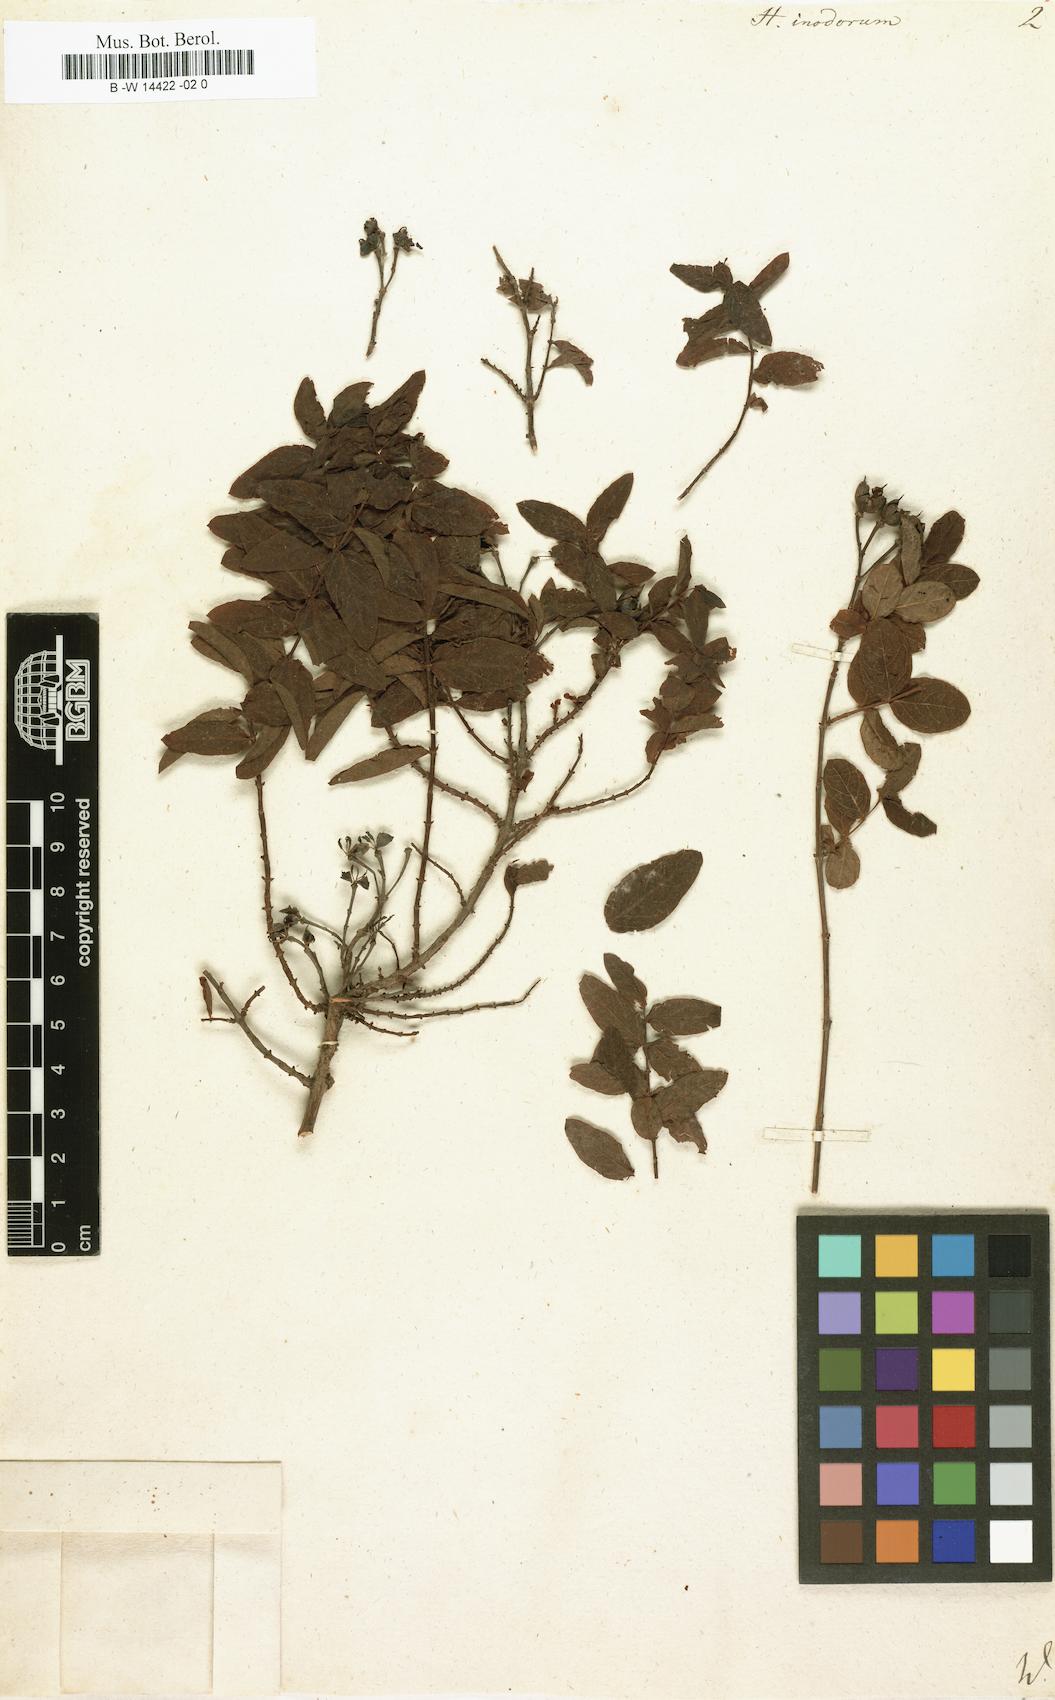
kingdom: Plantae
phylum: Tracheophyta
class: Magnoliopsida
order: Malpighiales
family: Hypericaceae
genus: Hypericum
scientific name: Hypericum inodorum
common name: Tall tutsan
